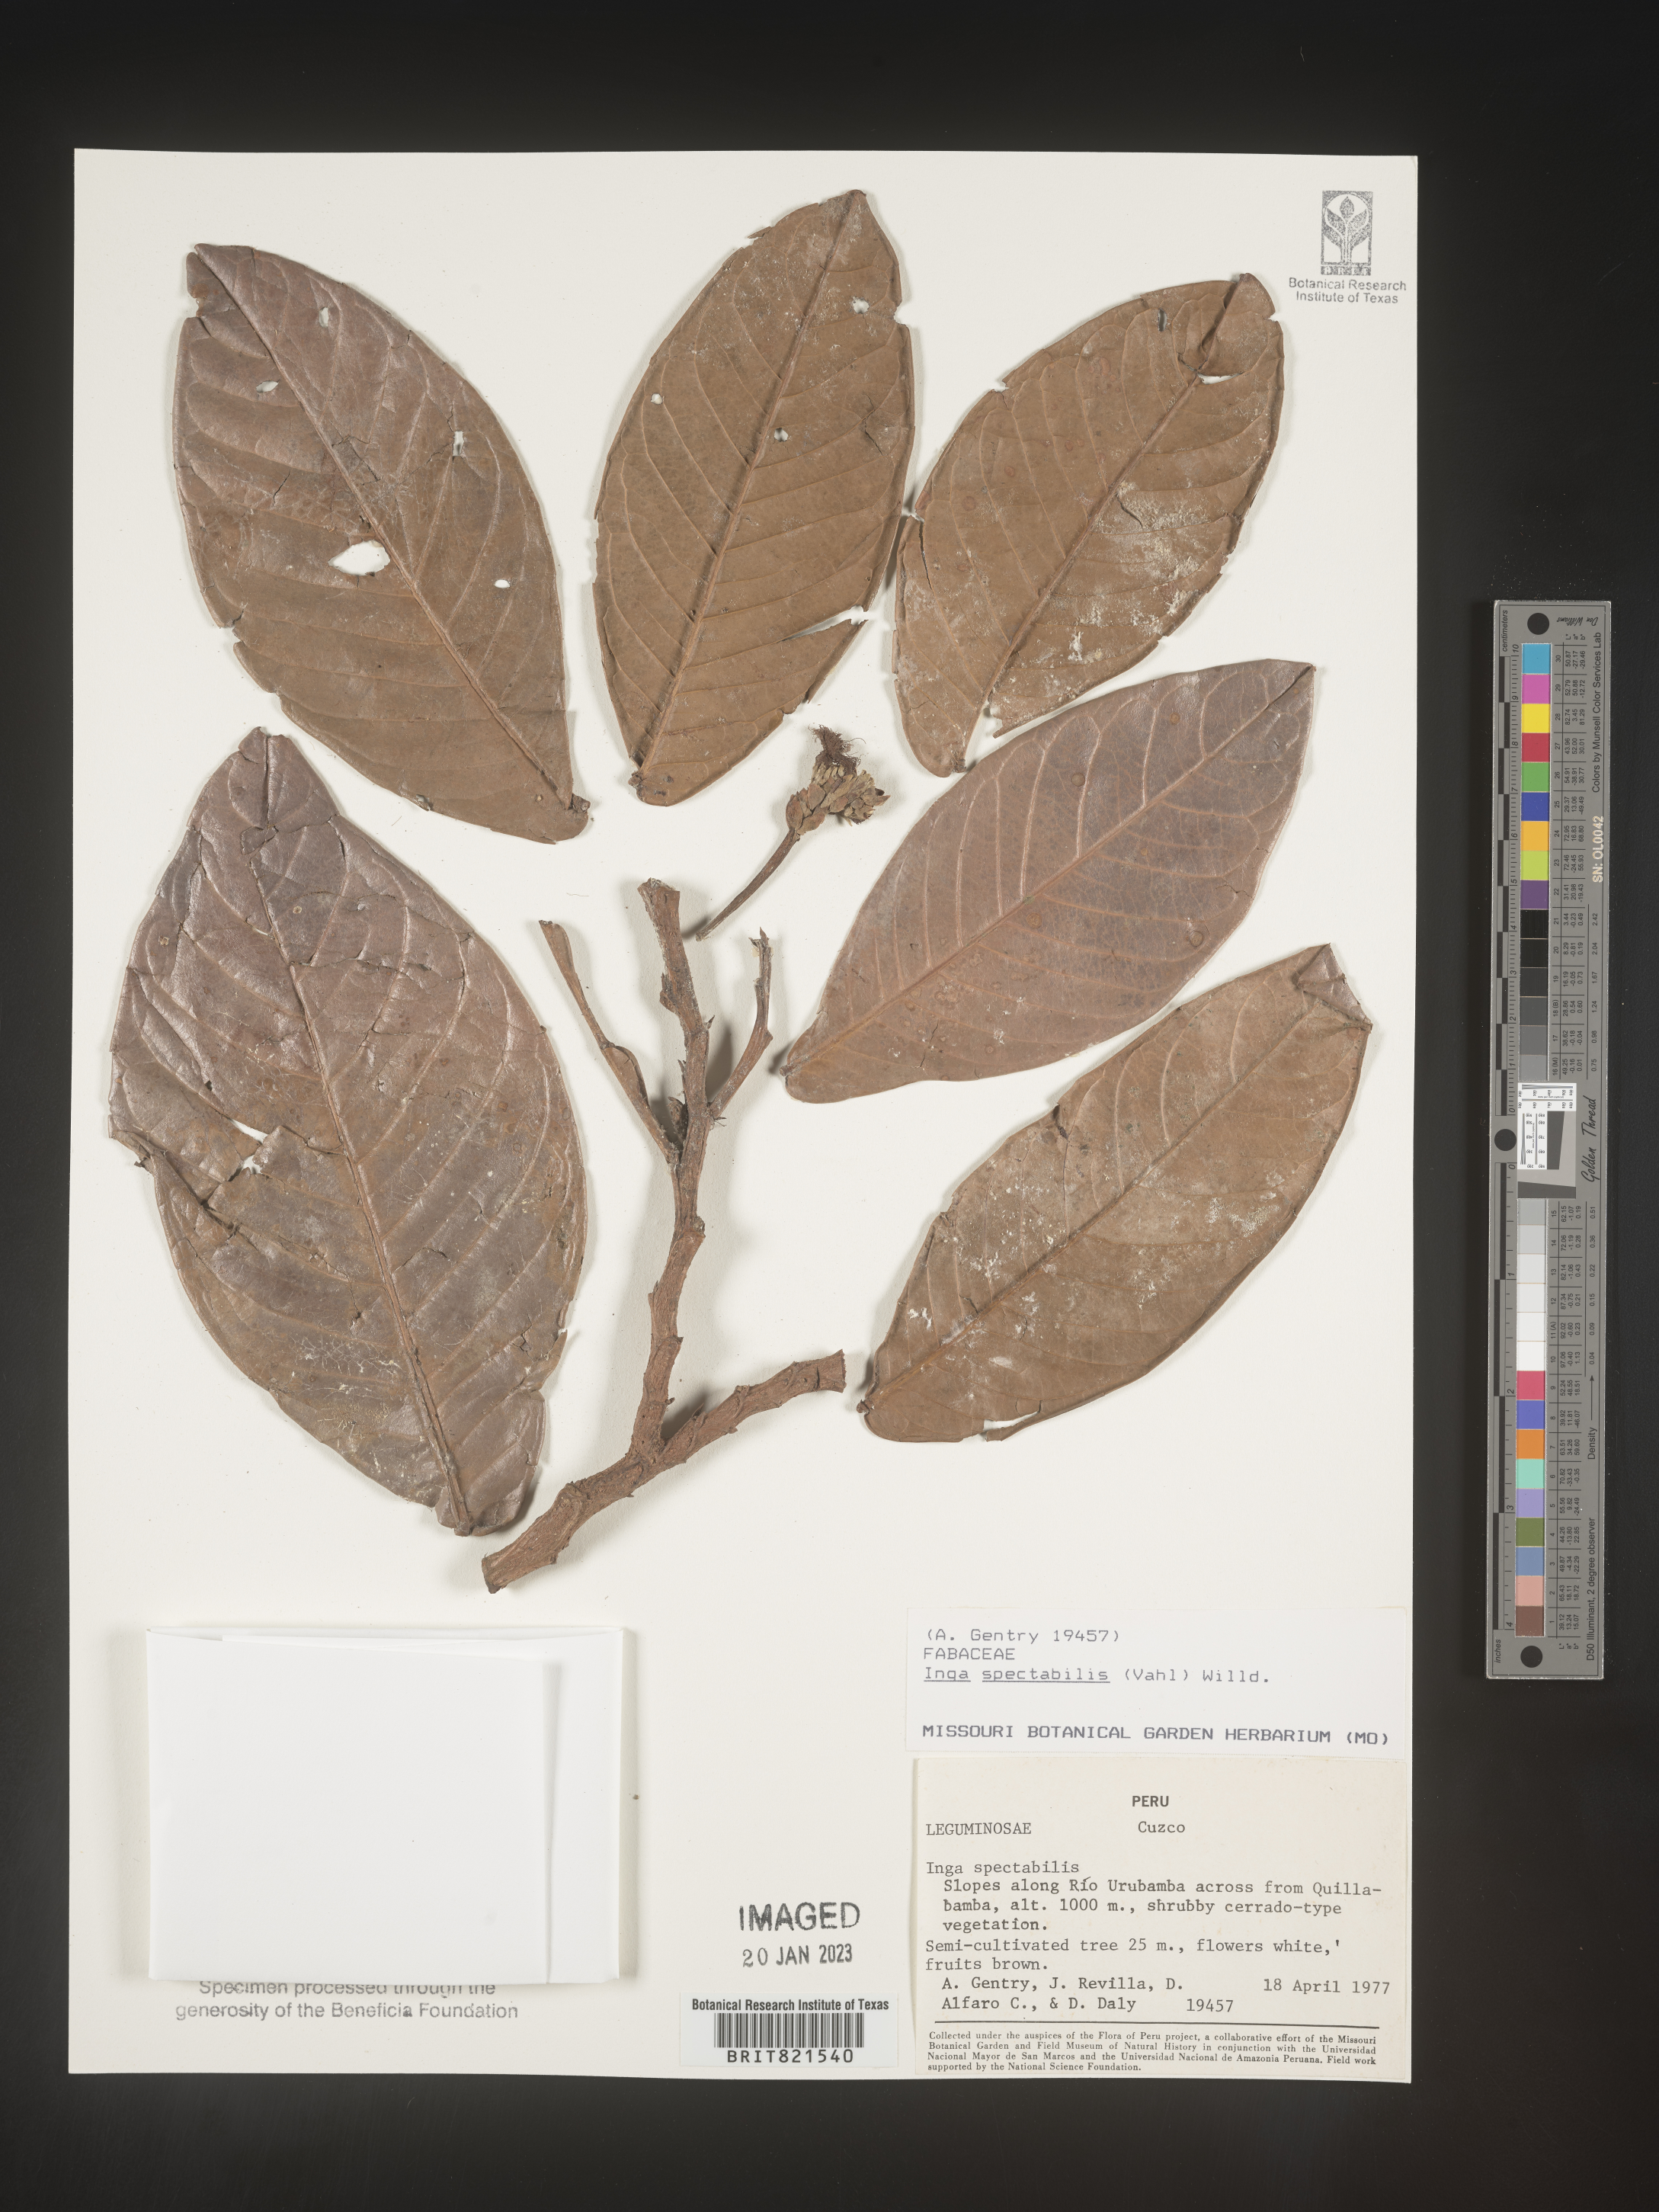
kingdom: Plantae
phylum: Tracheophyta
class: Magnoliopsida
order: Fabales
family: Fabaceae
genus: Inga
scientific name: Inga
